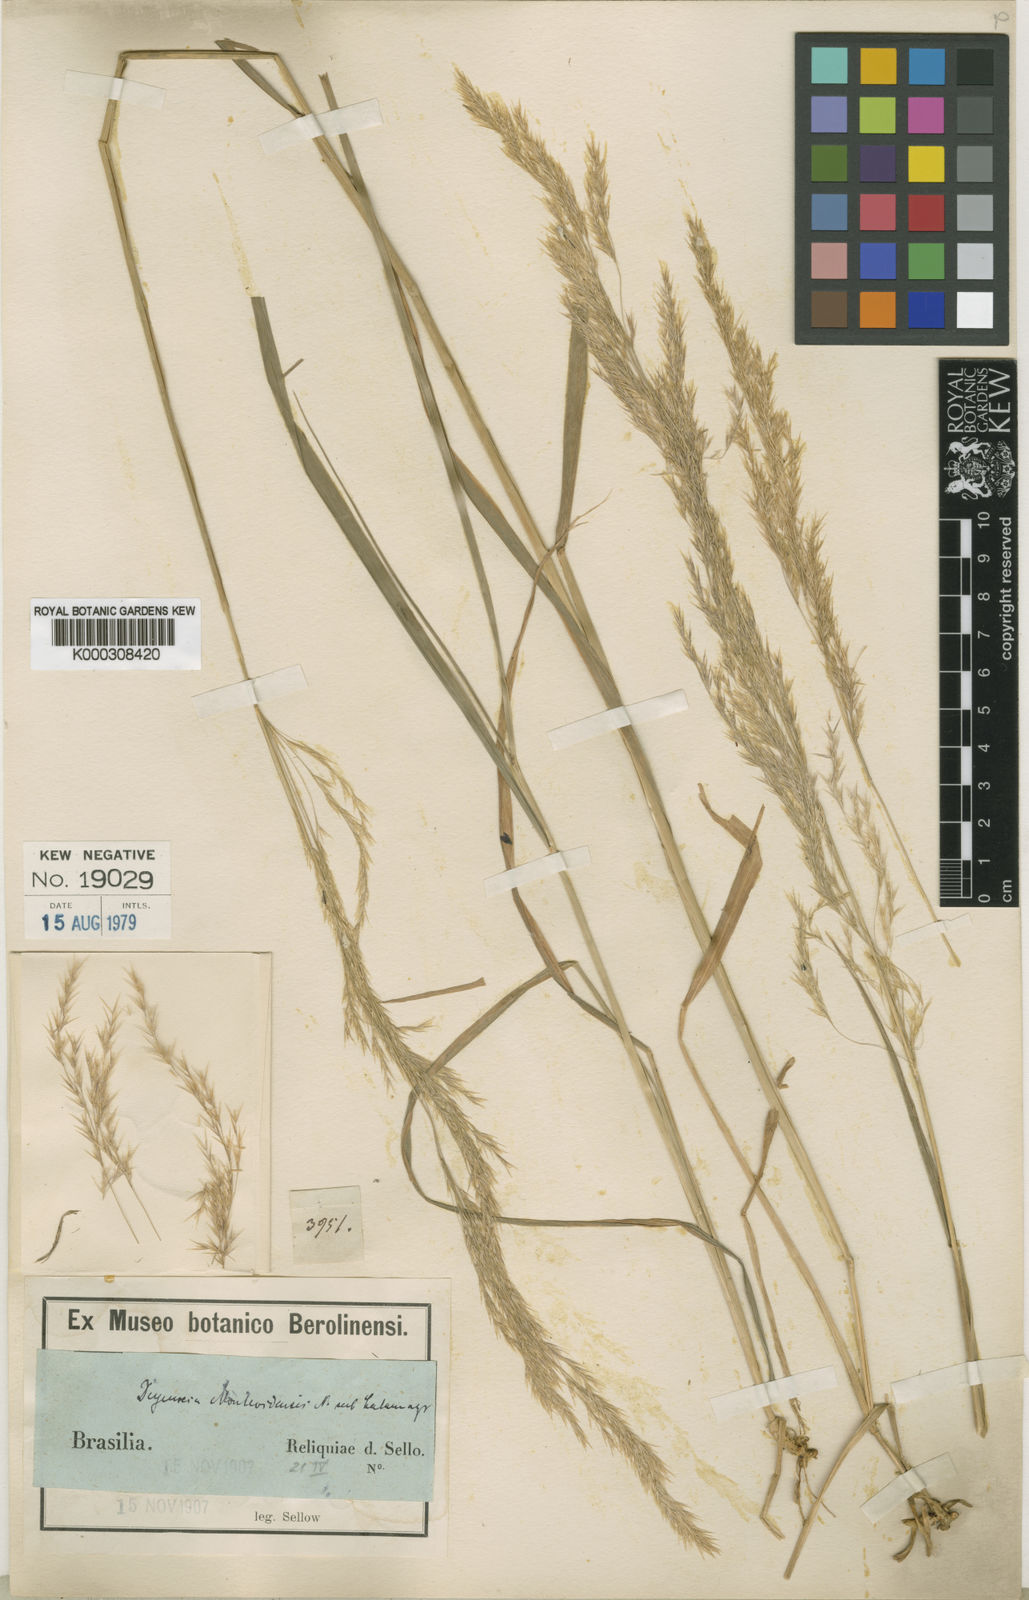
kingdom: Plantae
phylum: Tracheophyta
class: Liliopsida
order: Poales
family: Poaceae
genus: Cinnagrostis
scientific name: Cinnagrostis viridiflavescens
